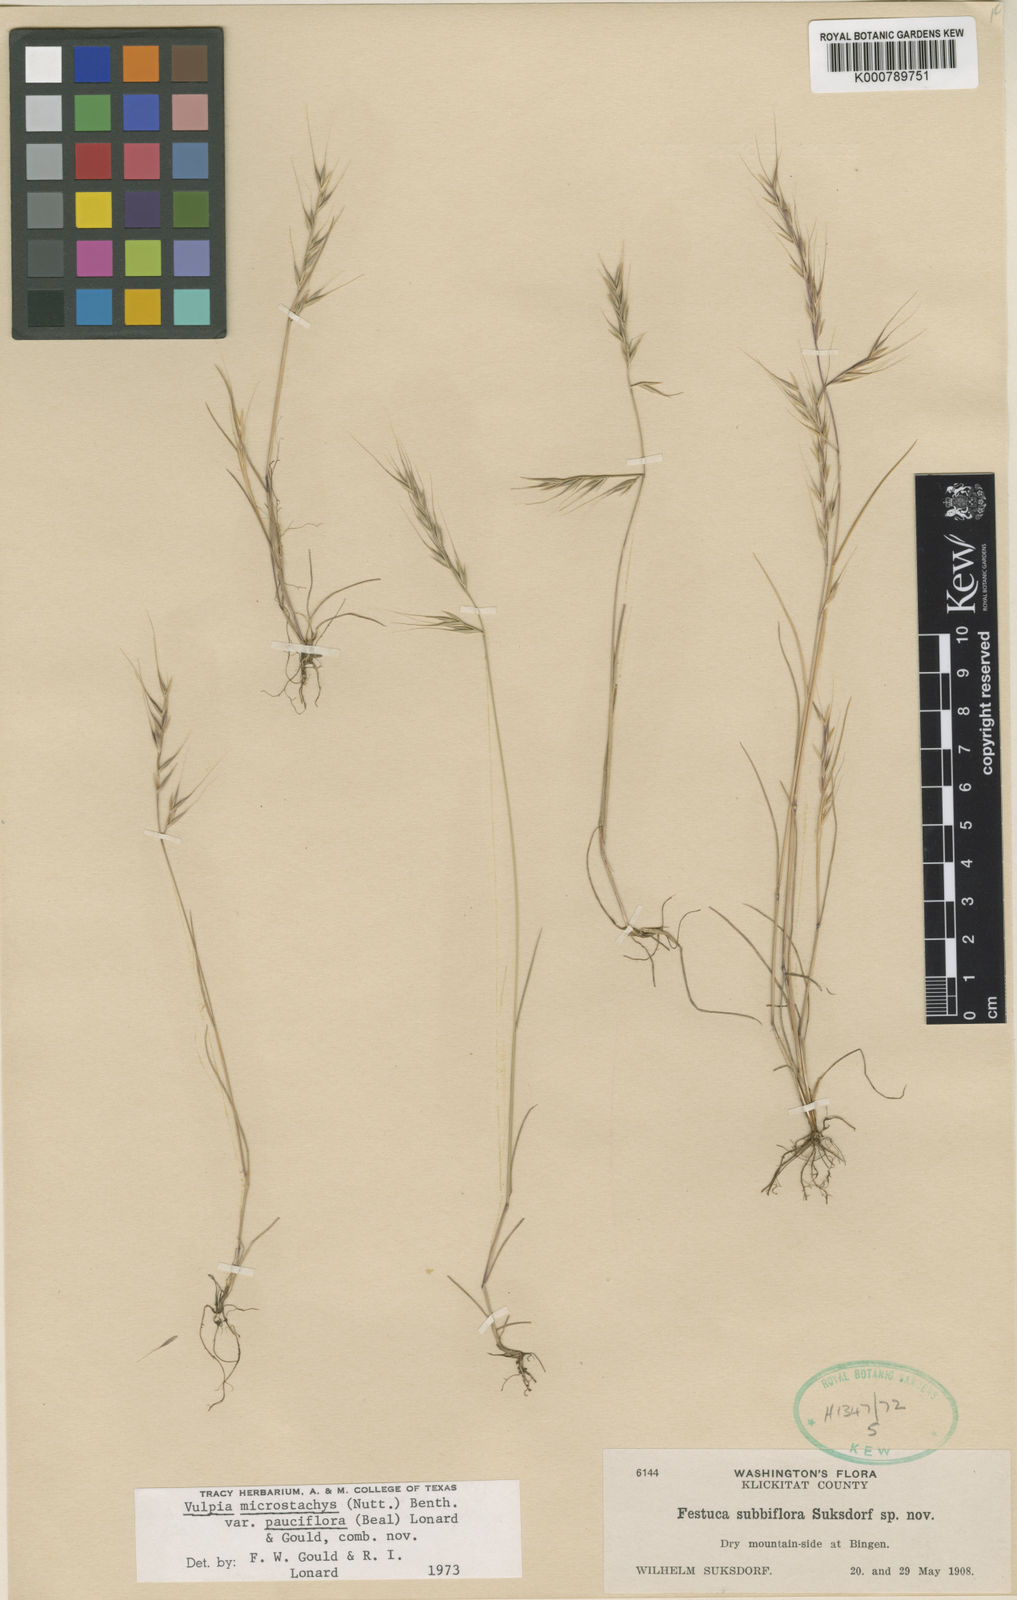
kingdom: Plantae
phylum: Tracheophyta
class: Liliopsida
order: Poales
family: Poaceae
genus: Festuca
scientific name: Festuca microstachys
